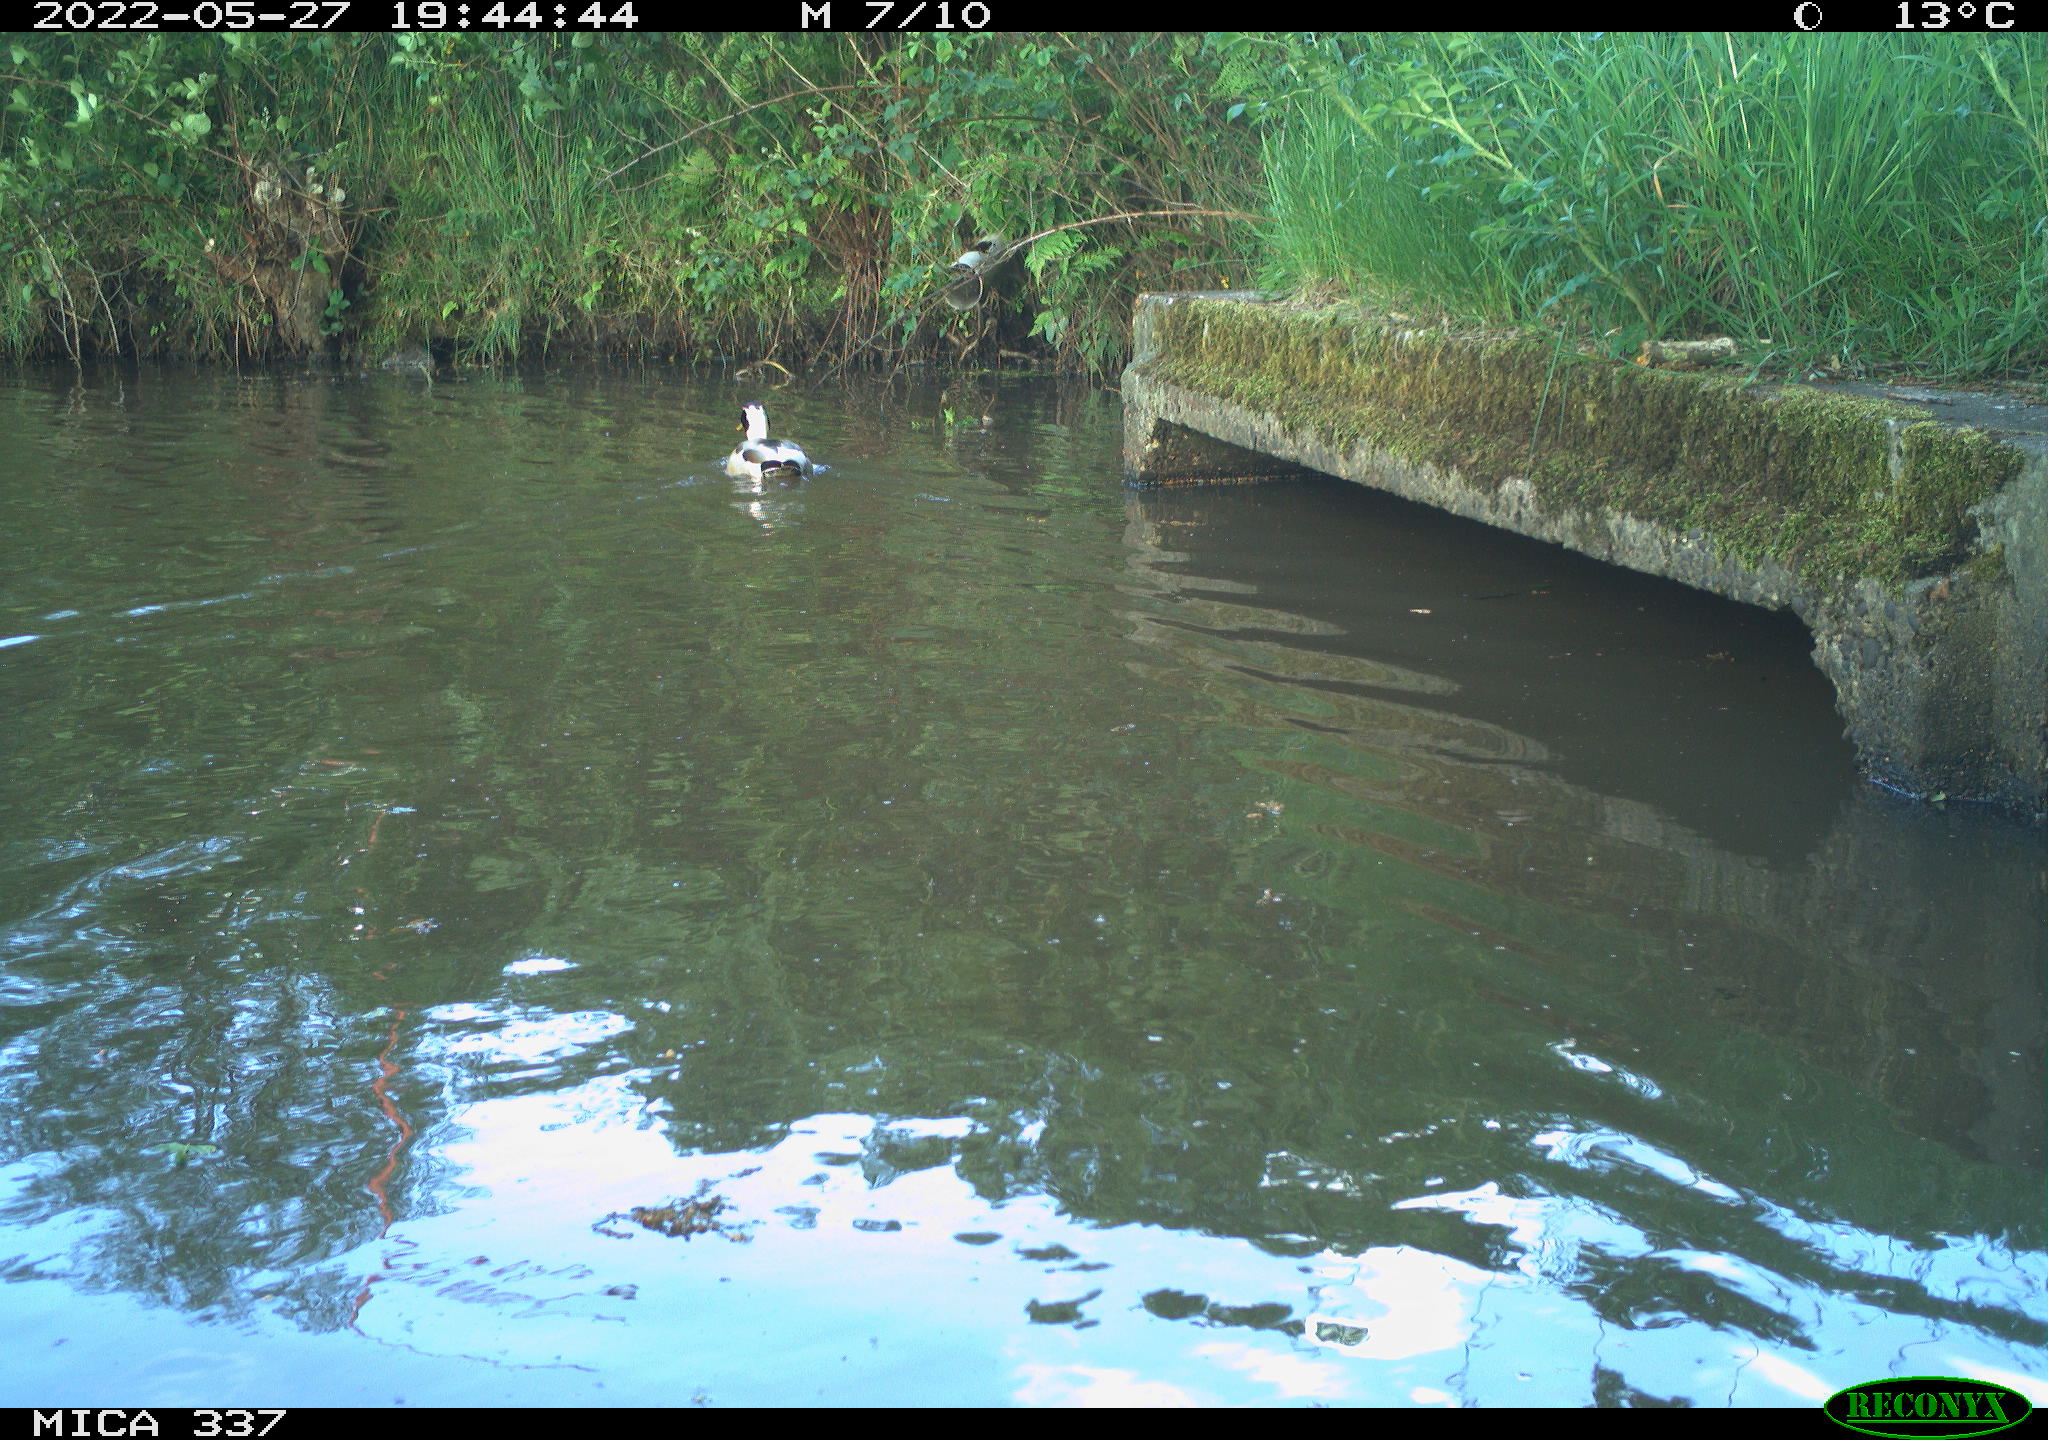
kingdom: Animalia
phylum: Chordata
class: Aves
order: Anseriformes
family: Anatidae
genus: Anas
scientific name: Anas platyrhynchos
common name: Mallard
